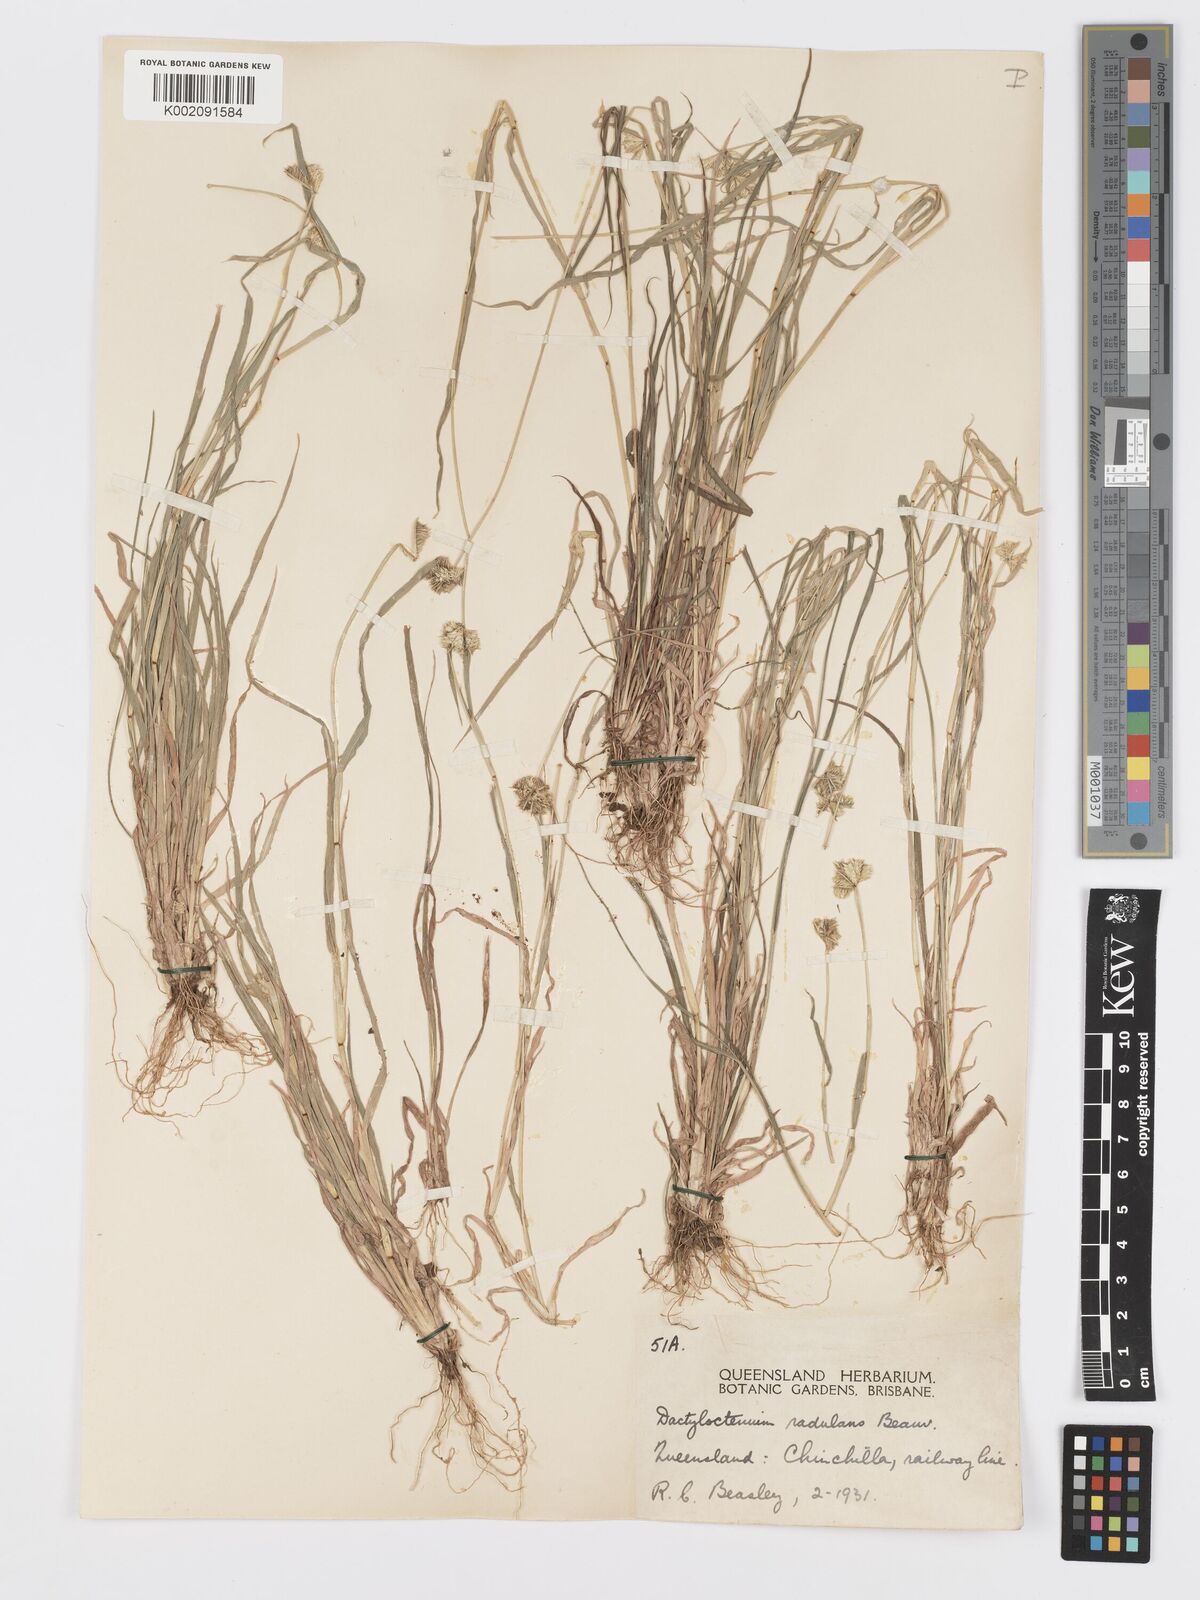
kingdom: Plantae
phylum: Tracheophyta
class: Liliopsida
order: Poales
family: Poaceae
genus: Dactyloctenium
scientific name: Dactyloctenium radulans
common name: Button-grass
